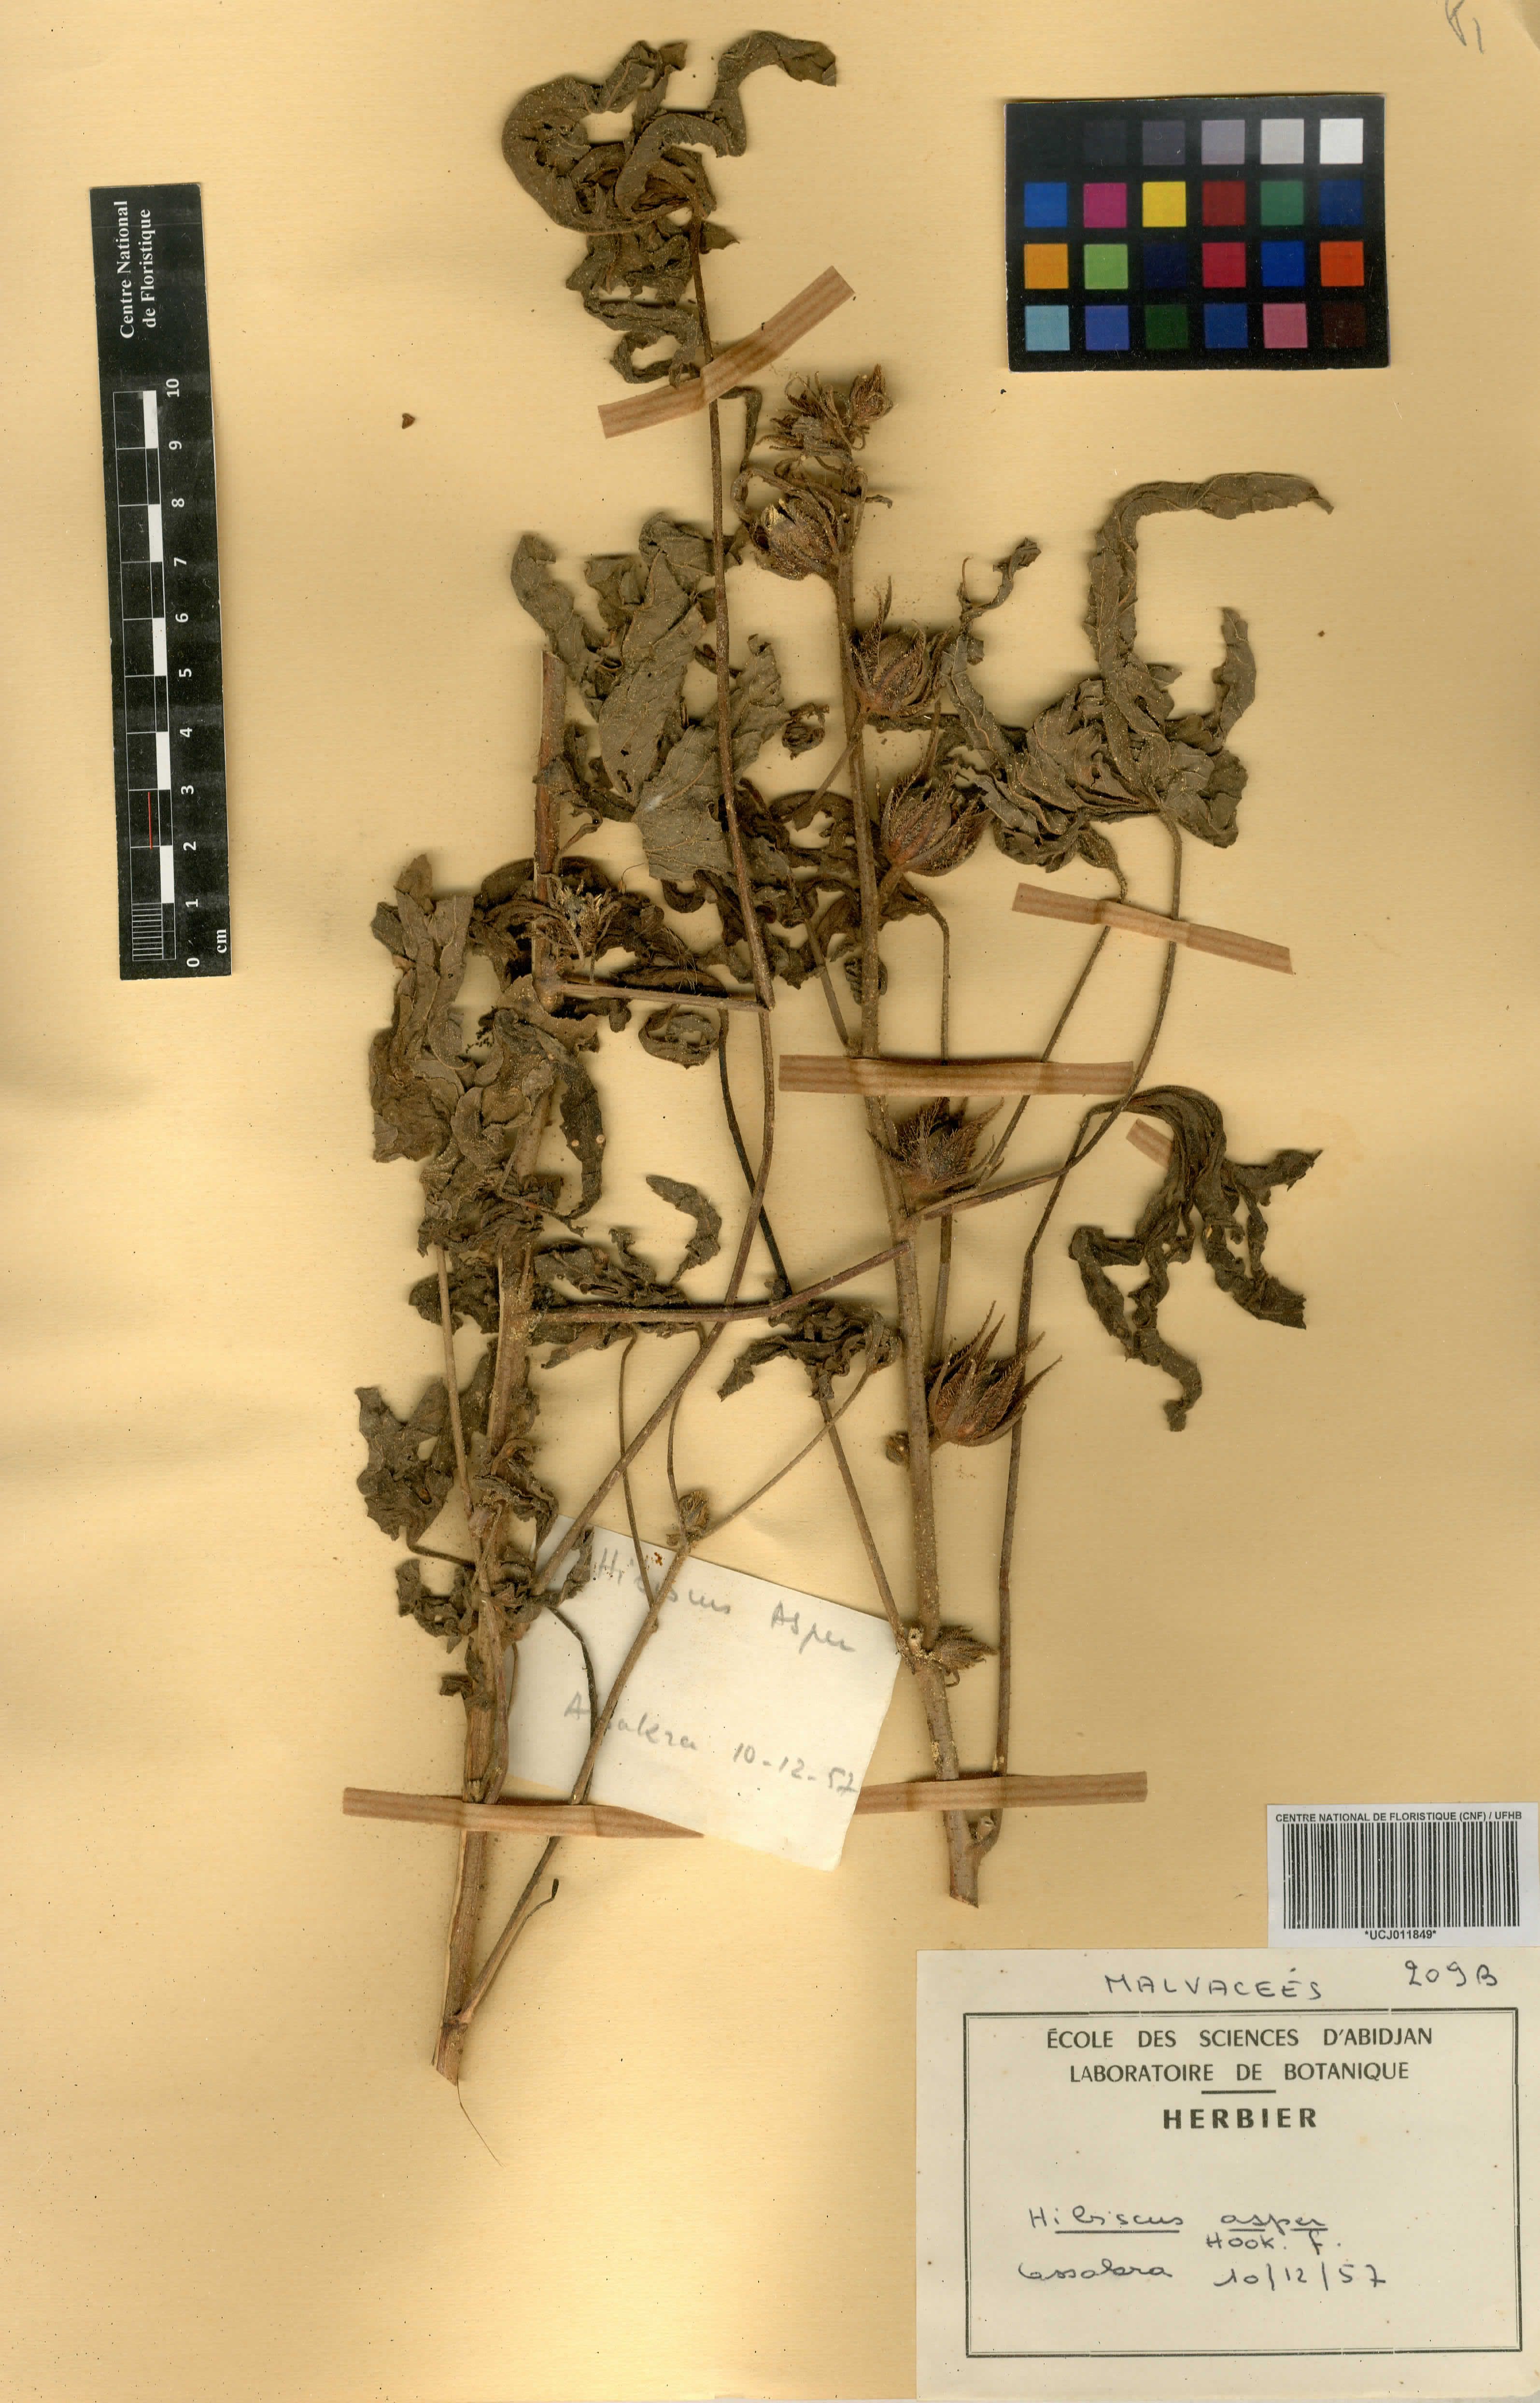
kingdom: Plantae
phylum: Tracheophyta
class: Magnoliopsida
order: Malvales
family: Malvaceae
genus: Hibiscus
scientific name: Hibiscus cannabinus
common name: Brown indianhemp
